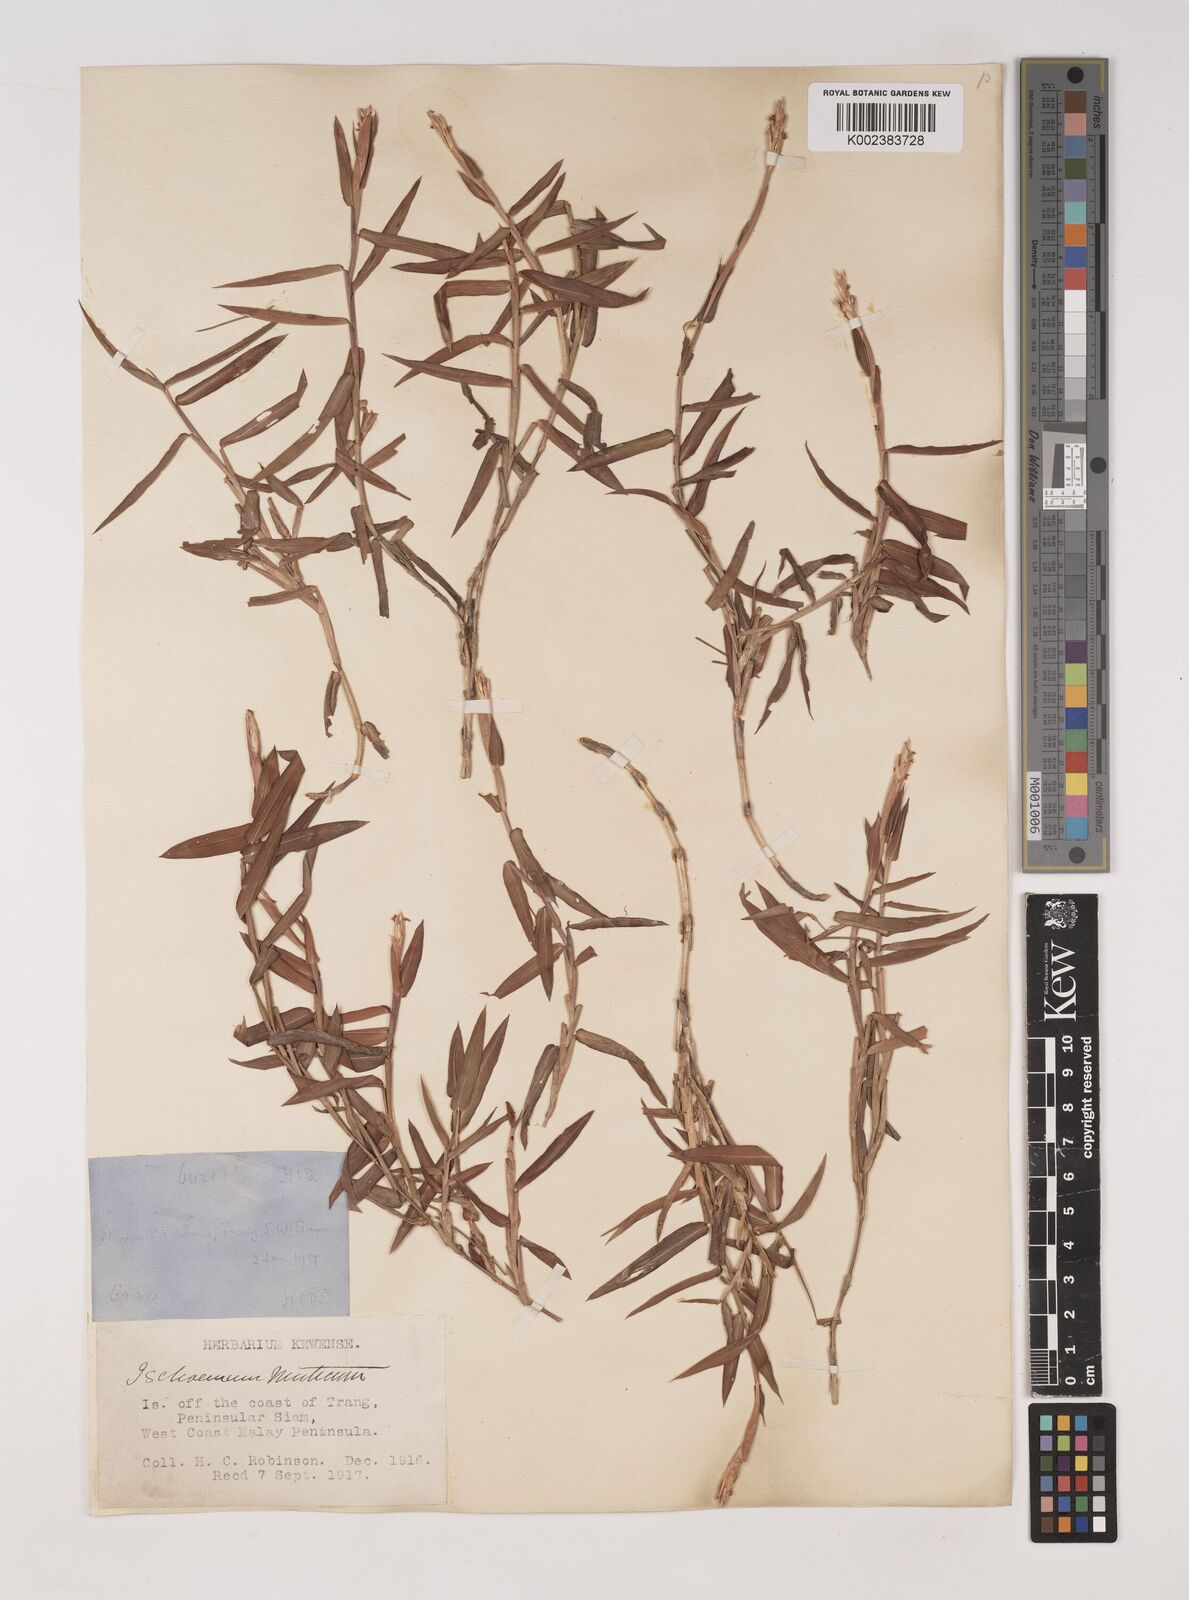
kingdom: Plantae
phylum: Tracheophyta
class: Liliopsida
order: Poales
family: Poaceae
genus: Ischaemum
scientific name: Ischaemum muticum
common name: Drought grass
